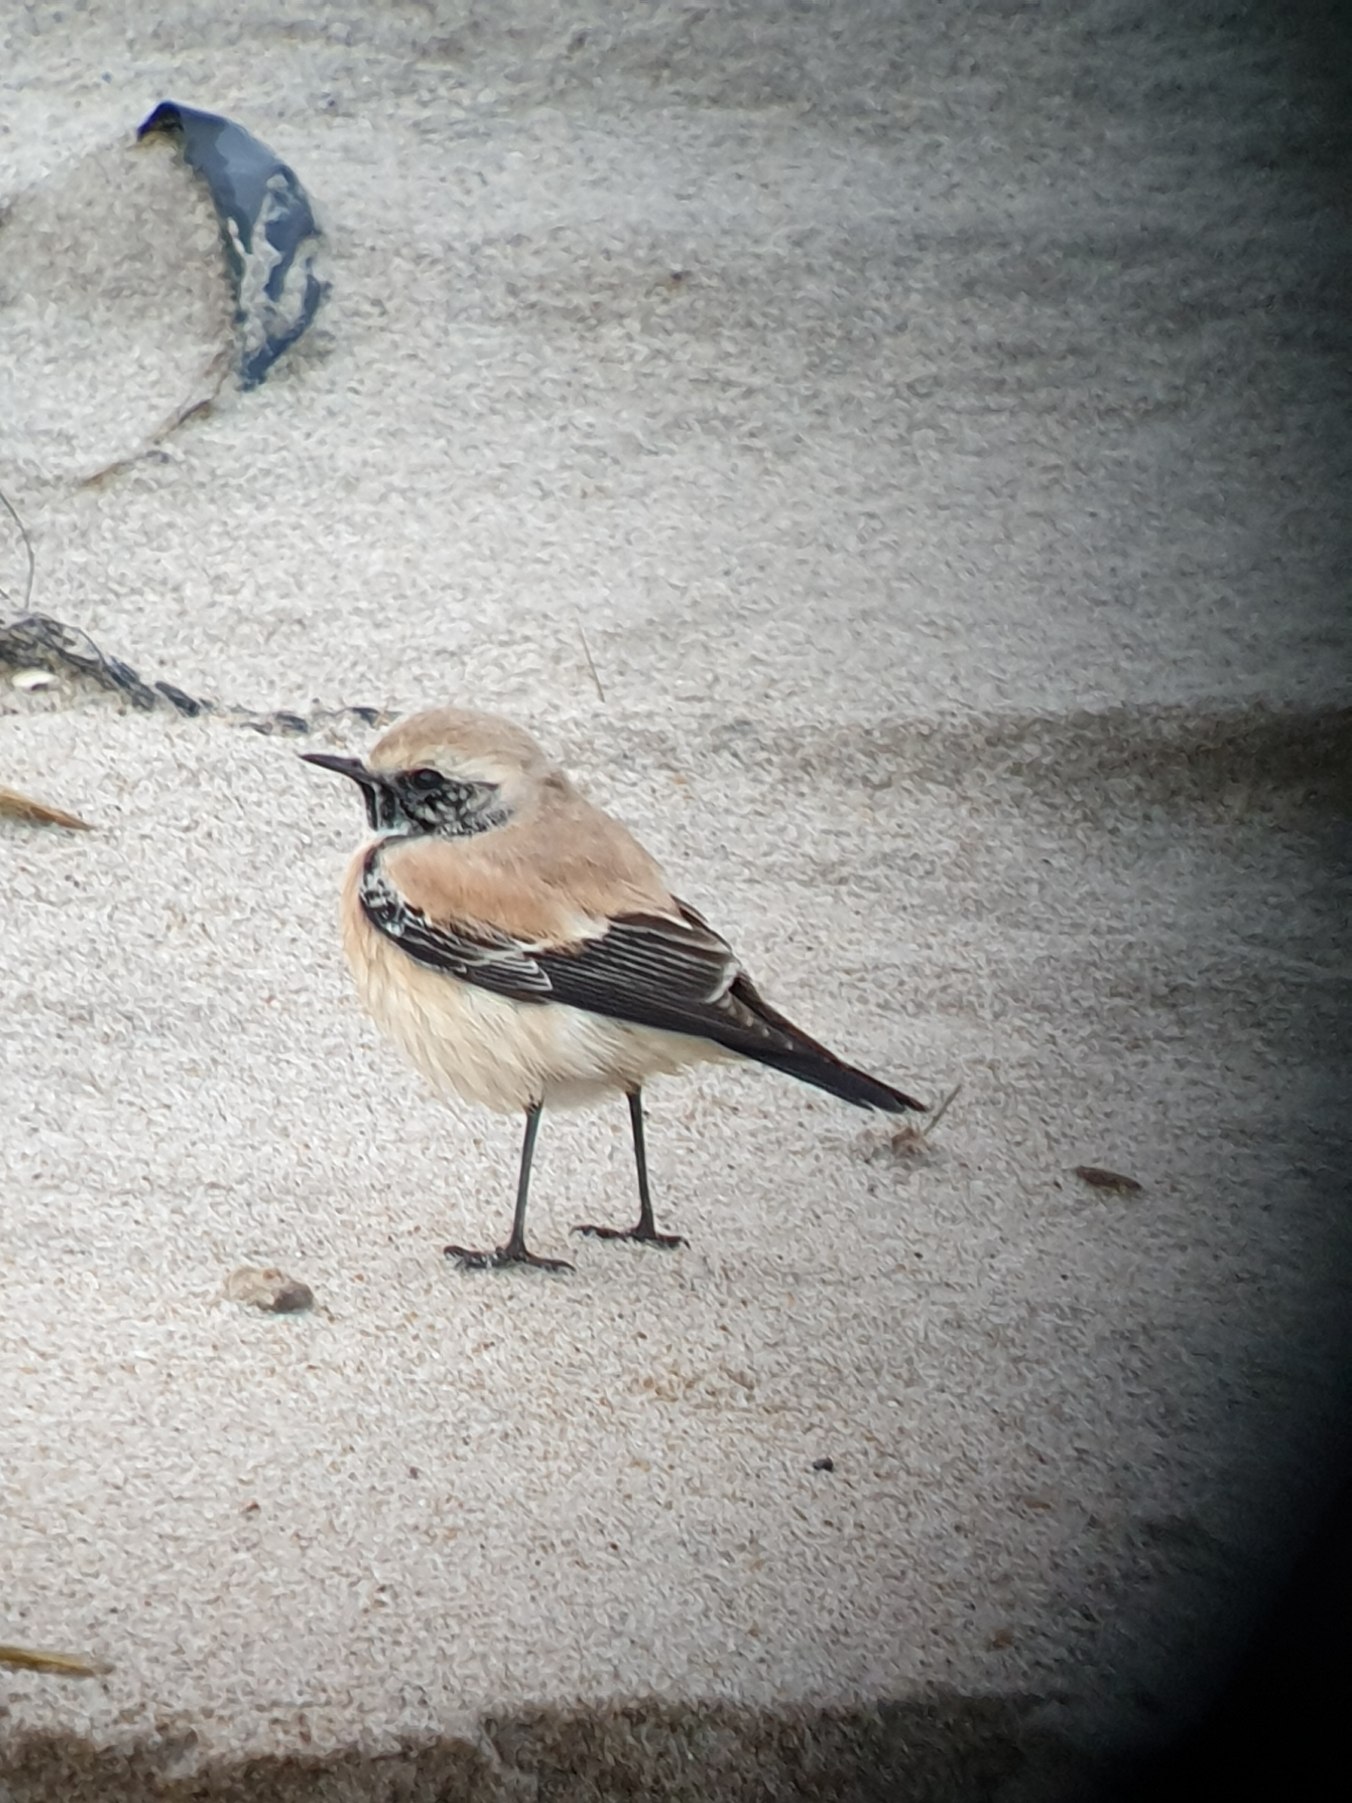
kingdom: Animalia
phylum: Chordata
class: Aves
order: Passeriformes
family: Muscicapidae
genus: Oenanthe
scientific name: Oenanthe deserti
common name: Ørkenstenpikker
